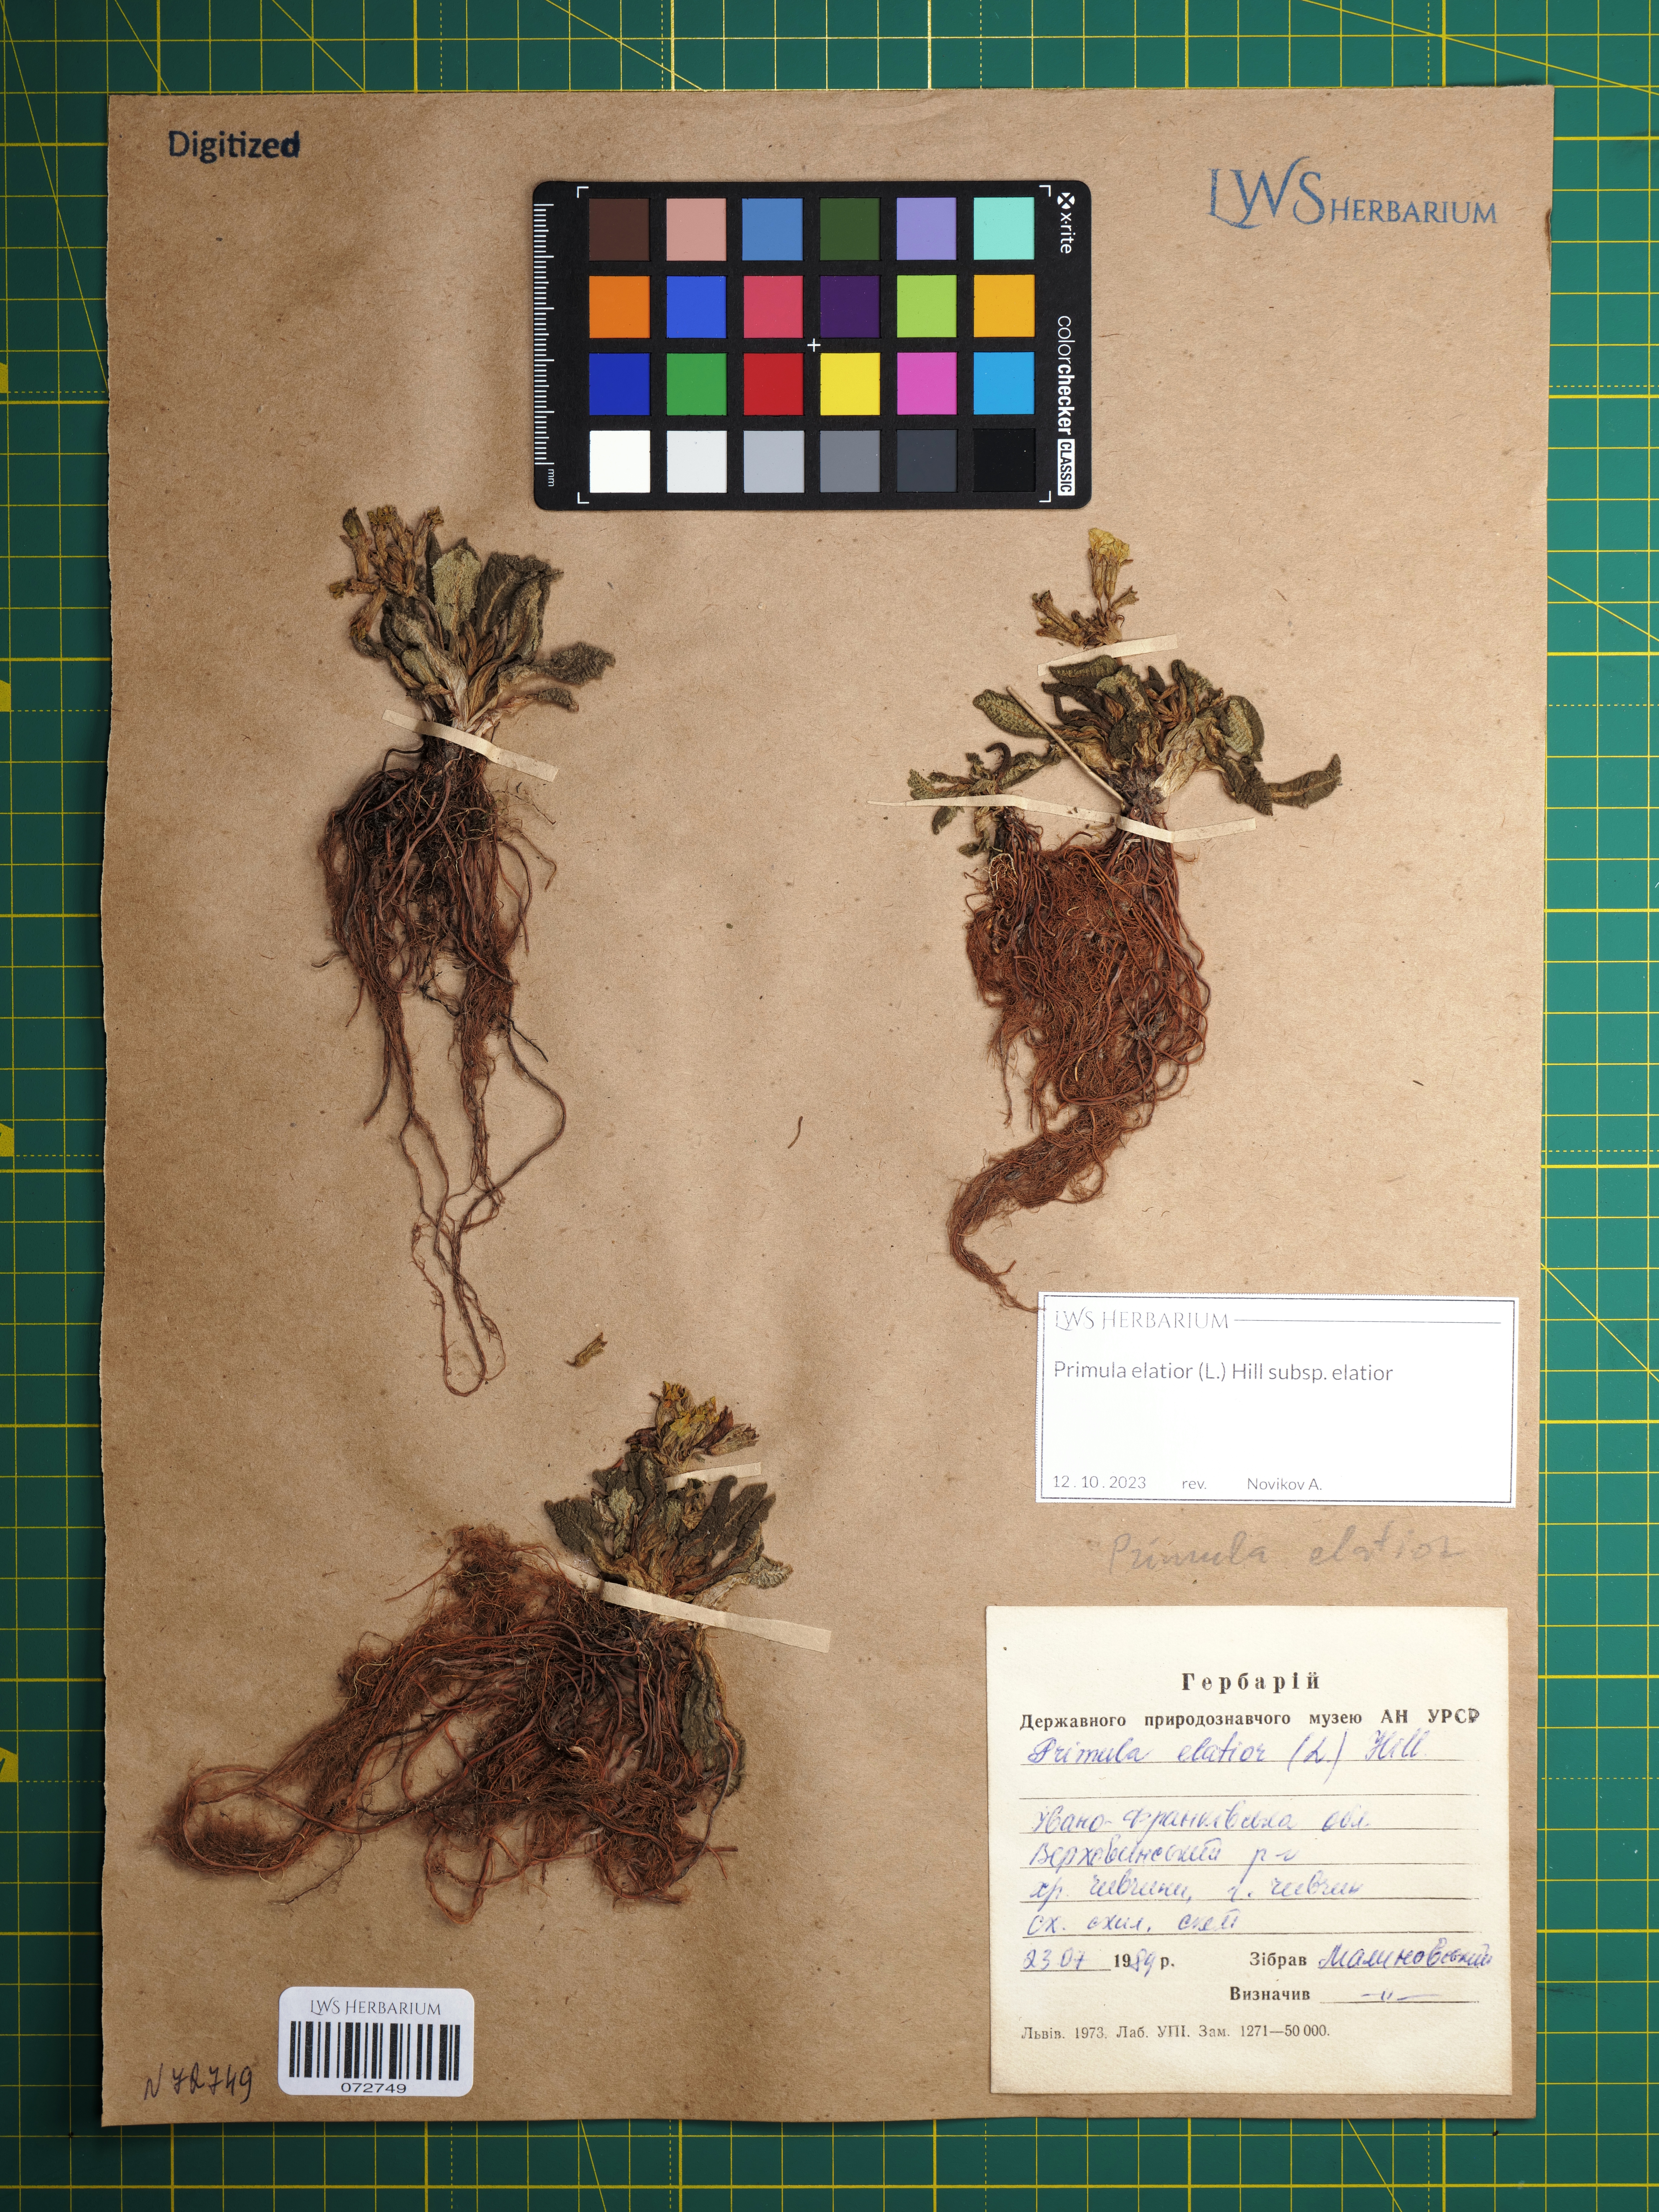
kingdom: Plantae
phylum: Tracheophyta
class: Magnoliopsida
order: Ericales
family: Primulaceae
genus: Primula
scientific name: Primula elatior
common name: Oxlip
